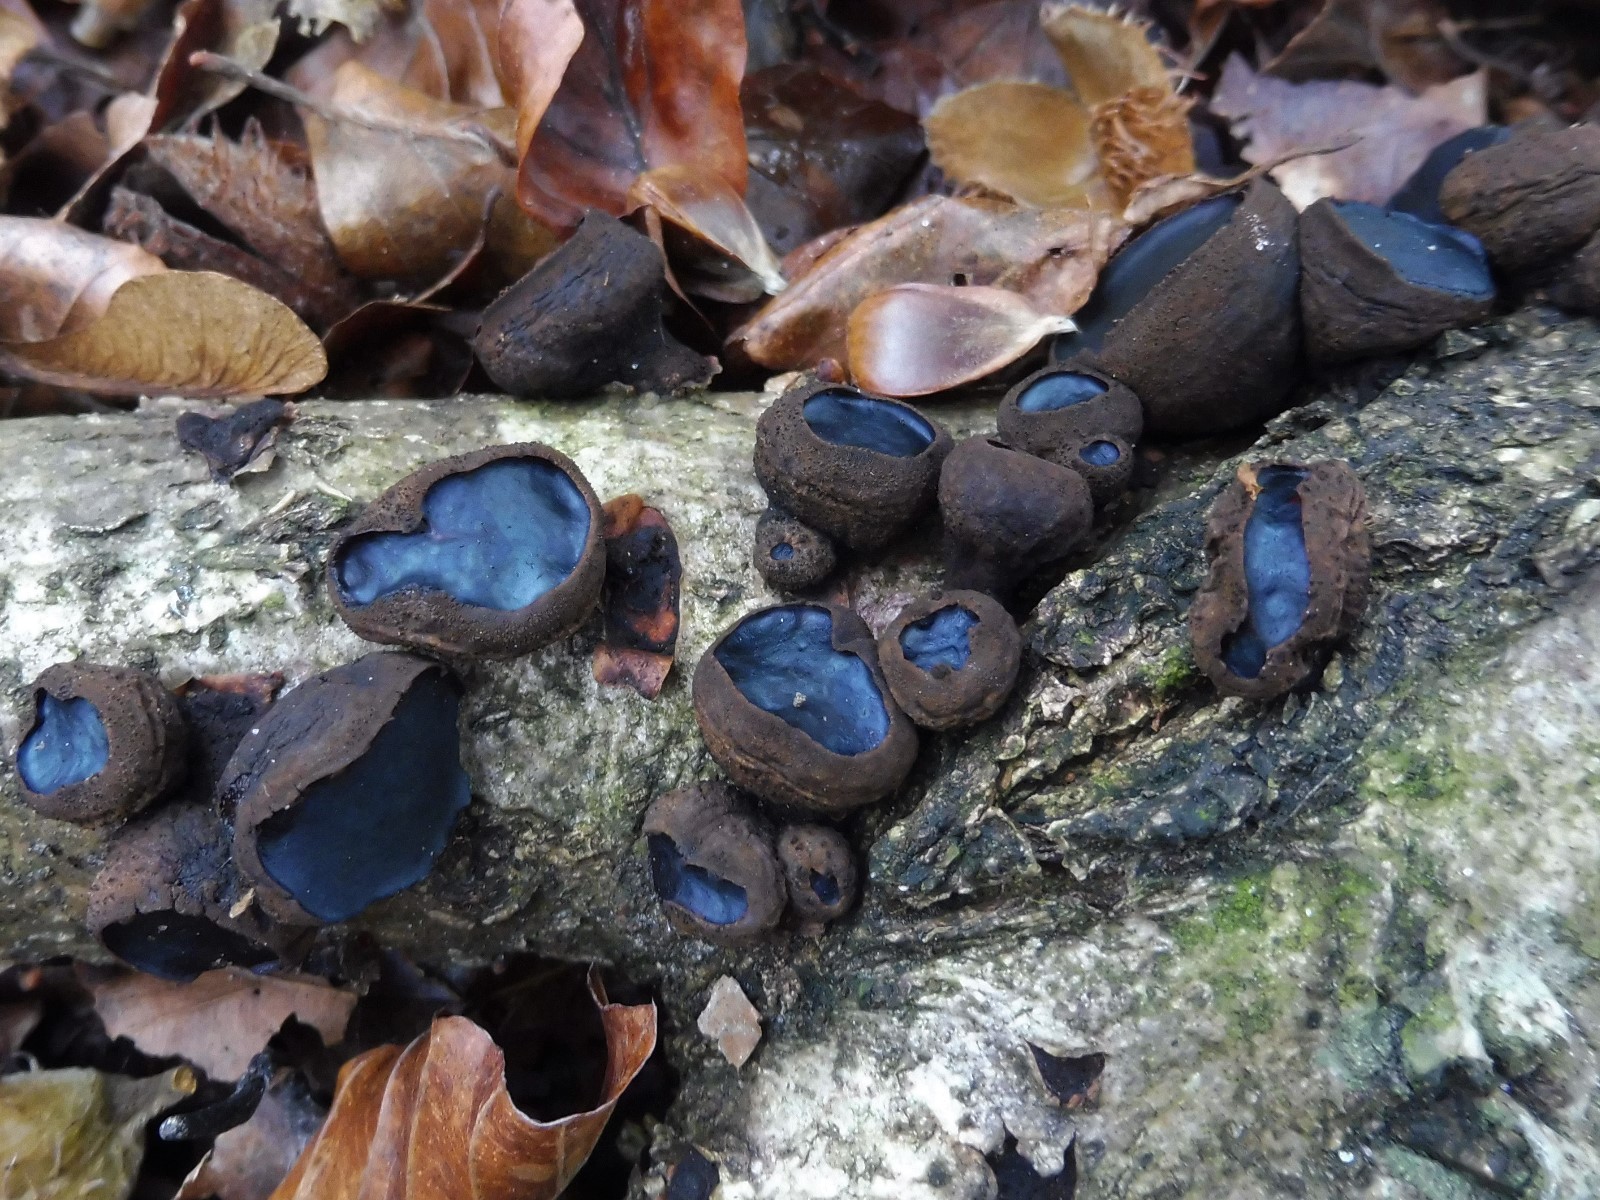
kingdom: Fungi
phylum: Ascomycota
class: Leotiomycetes
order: Phacidiales
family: Phacidiaceae
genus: Bulgaria
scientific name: Bulgaria inquinans
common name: afsmittende topsvamp
